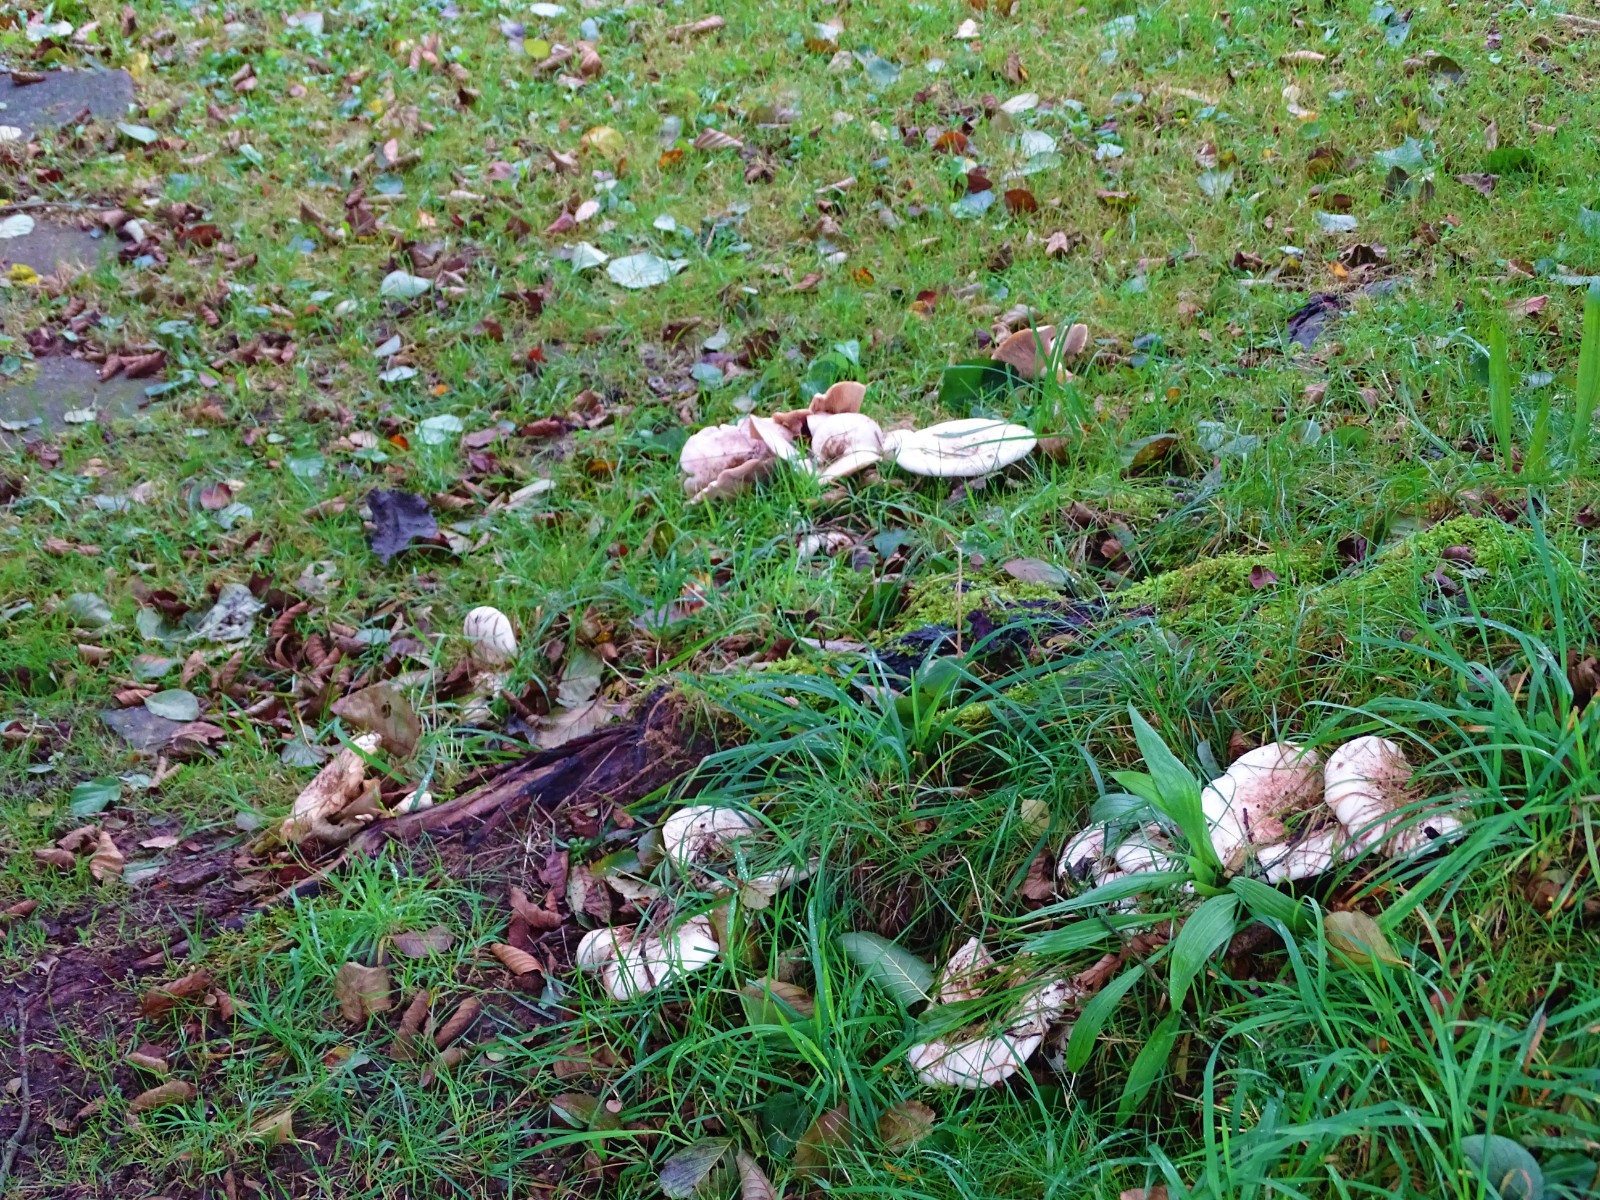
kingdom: Fungi
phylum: Basidiomycota
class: Agaricomycetes
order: Russulales
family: Russulaceae
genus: Lactarius
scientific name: Lactarius controversus
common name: rosabladet mælkehat
